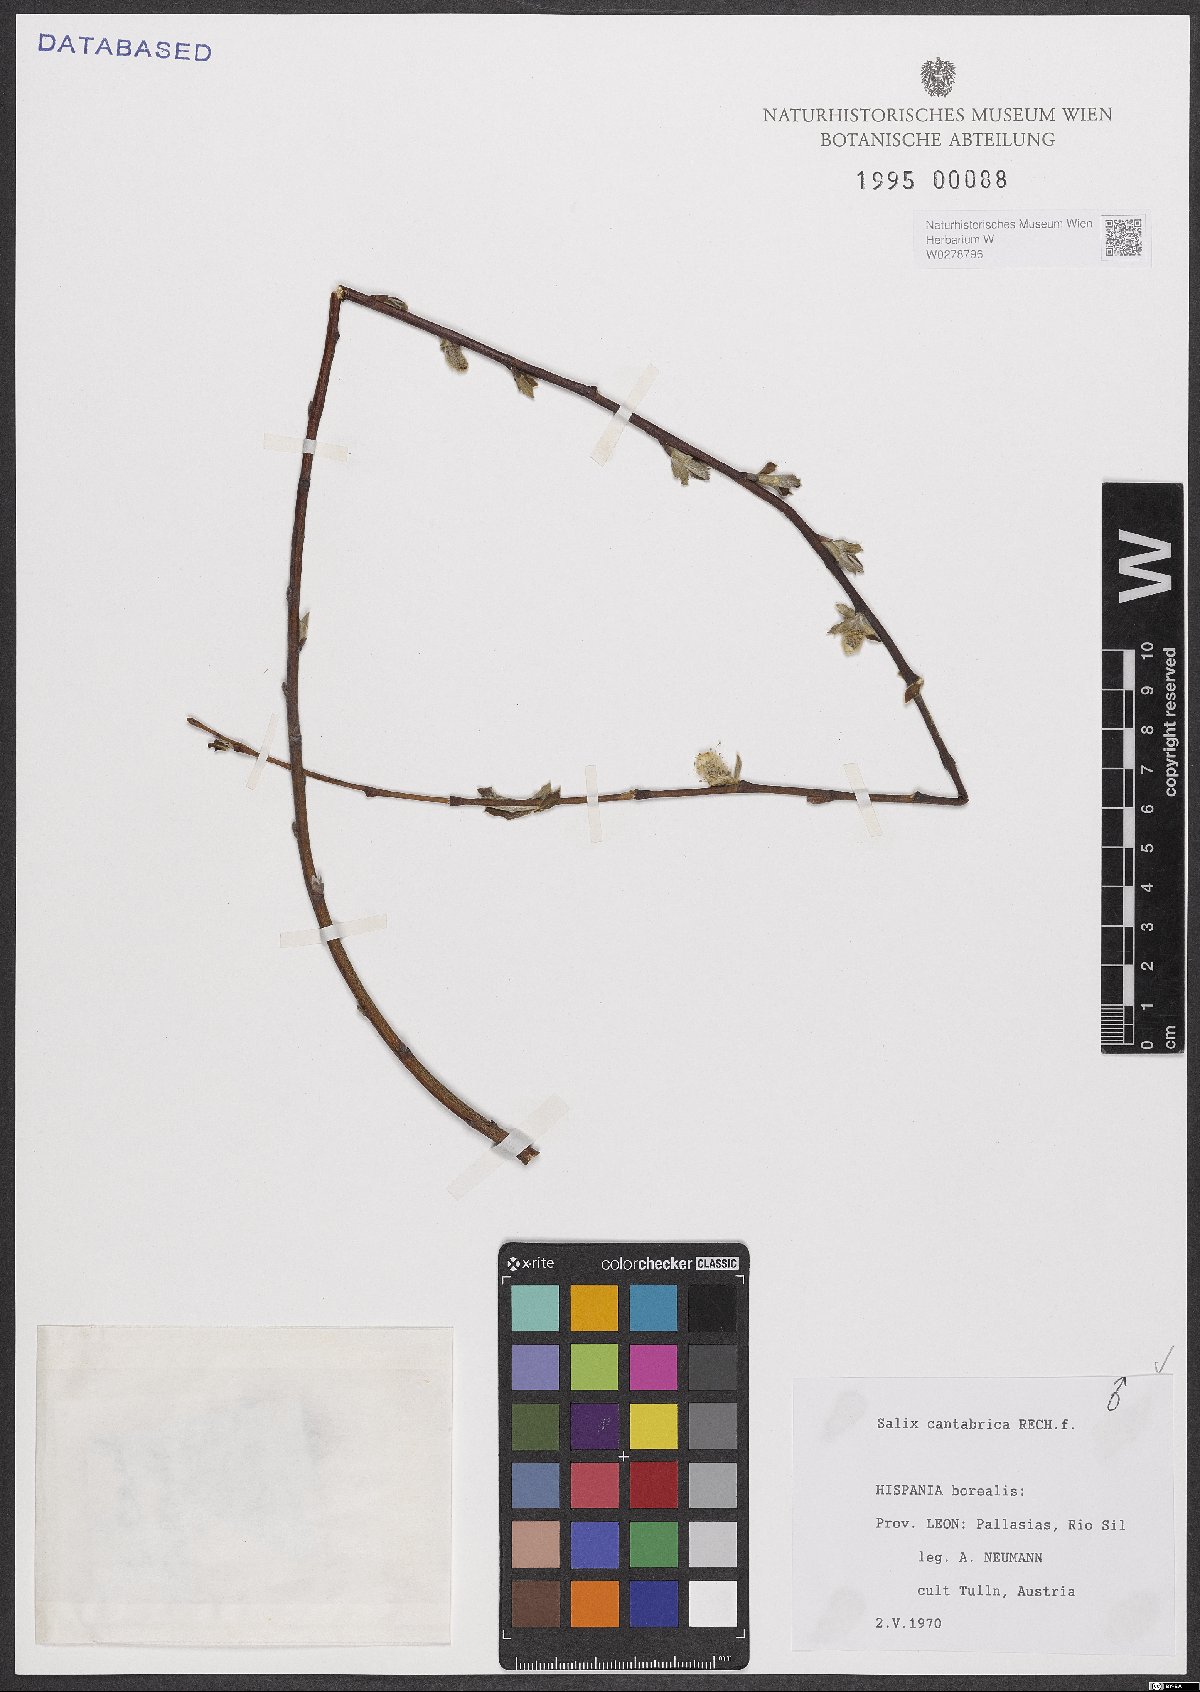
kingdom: Plantae
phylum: Tracheophyta
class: Magnoliopsida
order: Malpighiales
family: Salicaceae
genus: Salix
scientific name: Salix cantabrica
